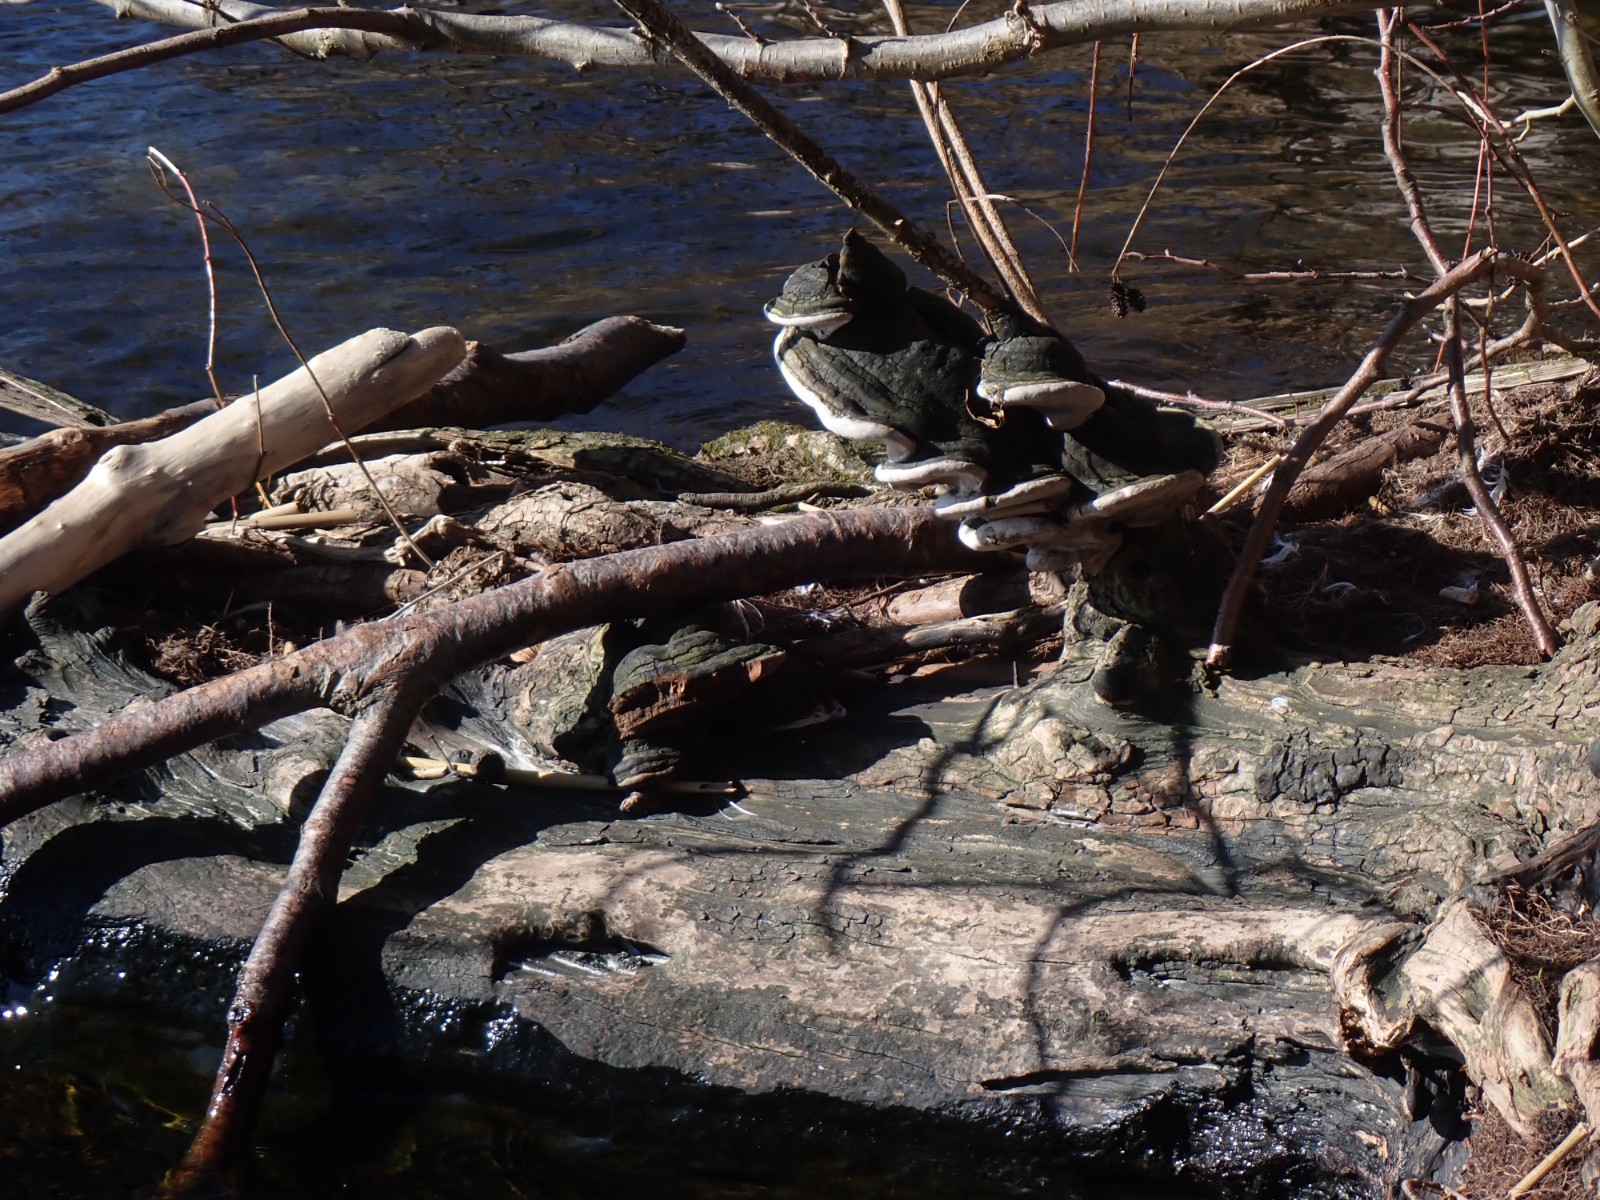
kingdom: Fungi
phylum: Basidiomycota
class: Agaricomycetes
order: Hymenochaetales
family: Hymenochaetaceae
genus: Phellinus
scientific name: Phellinus
